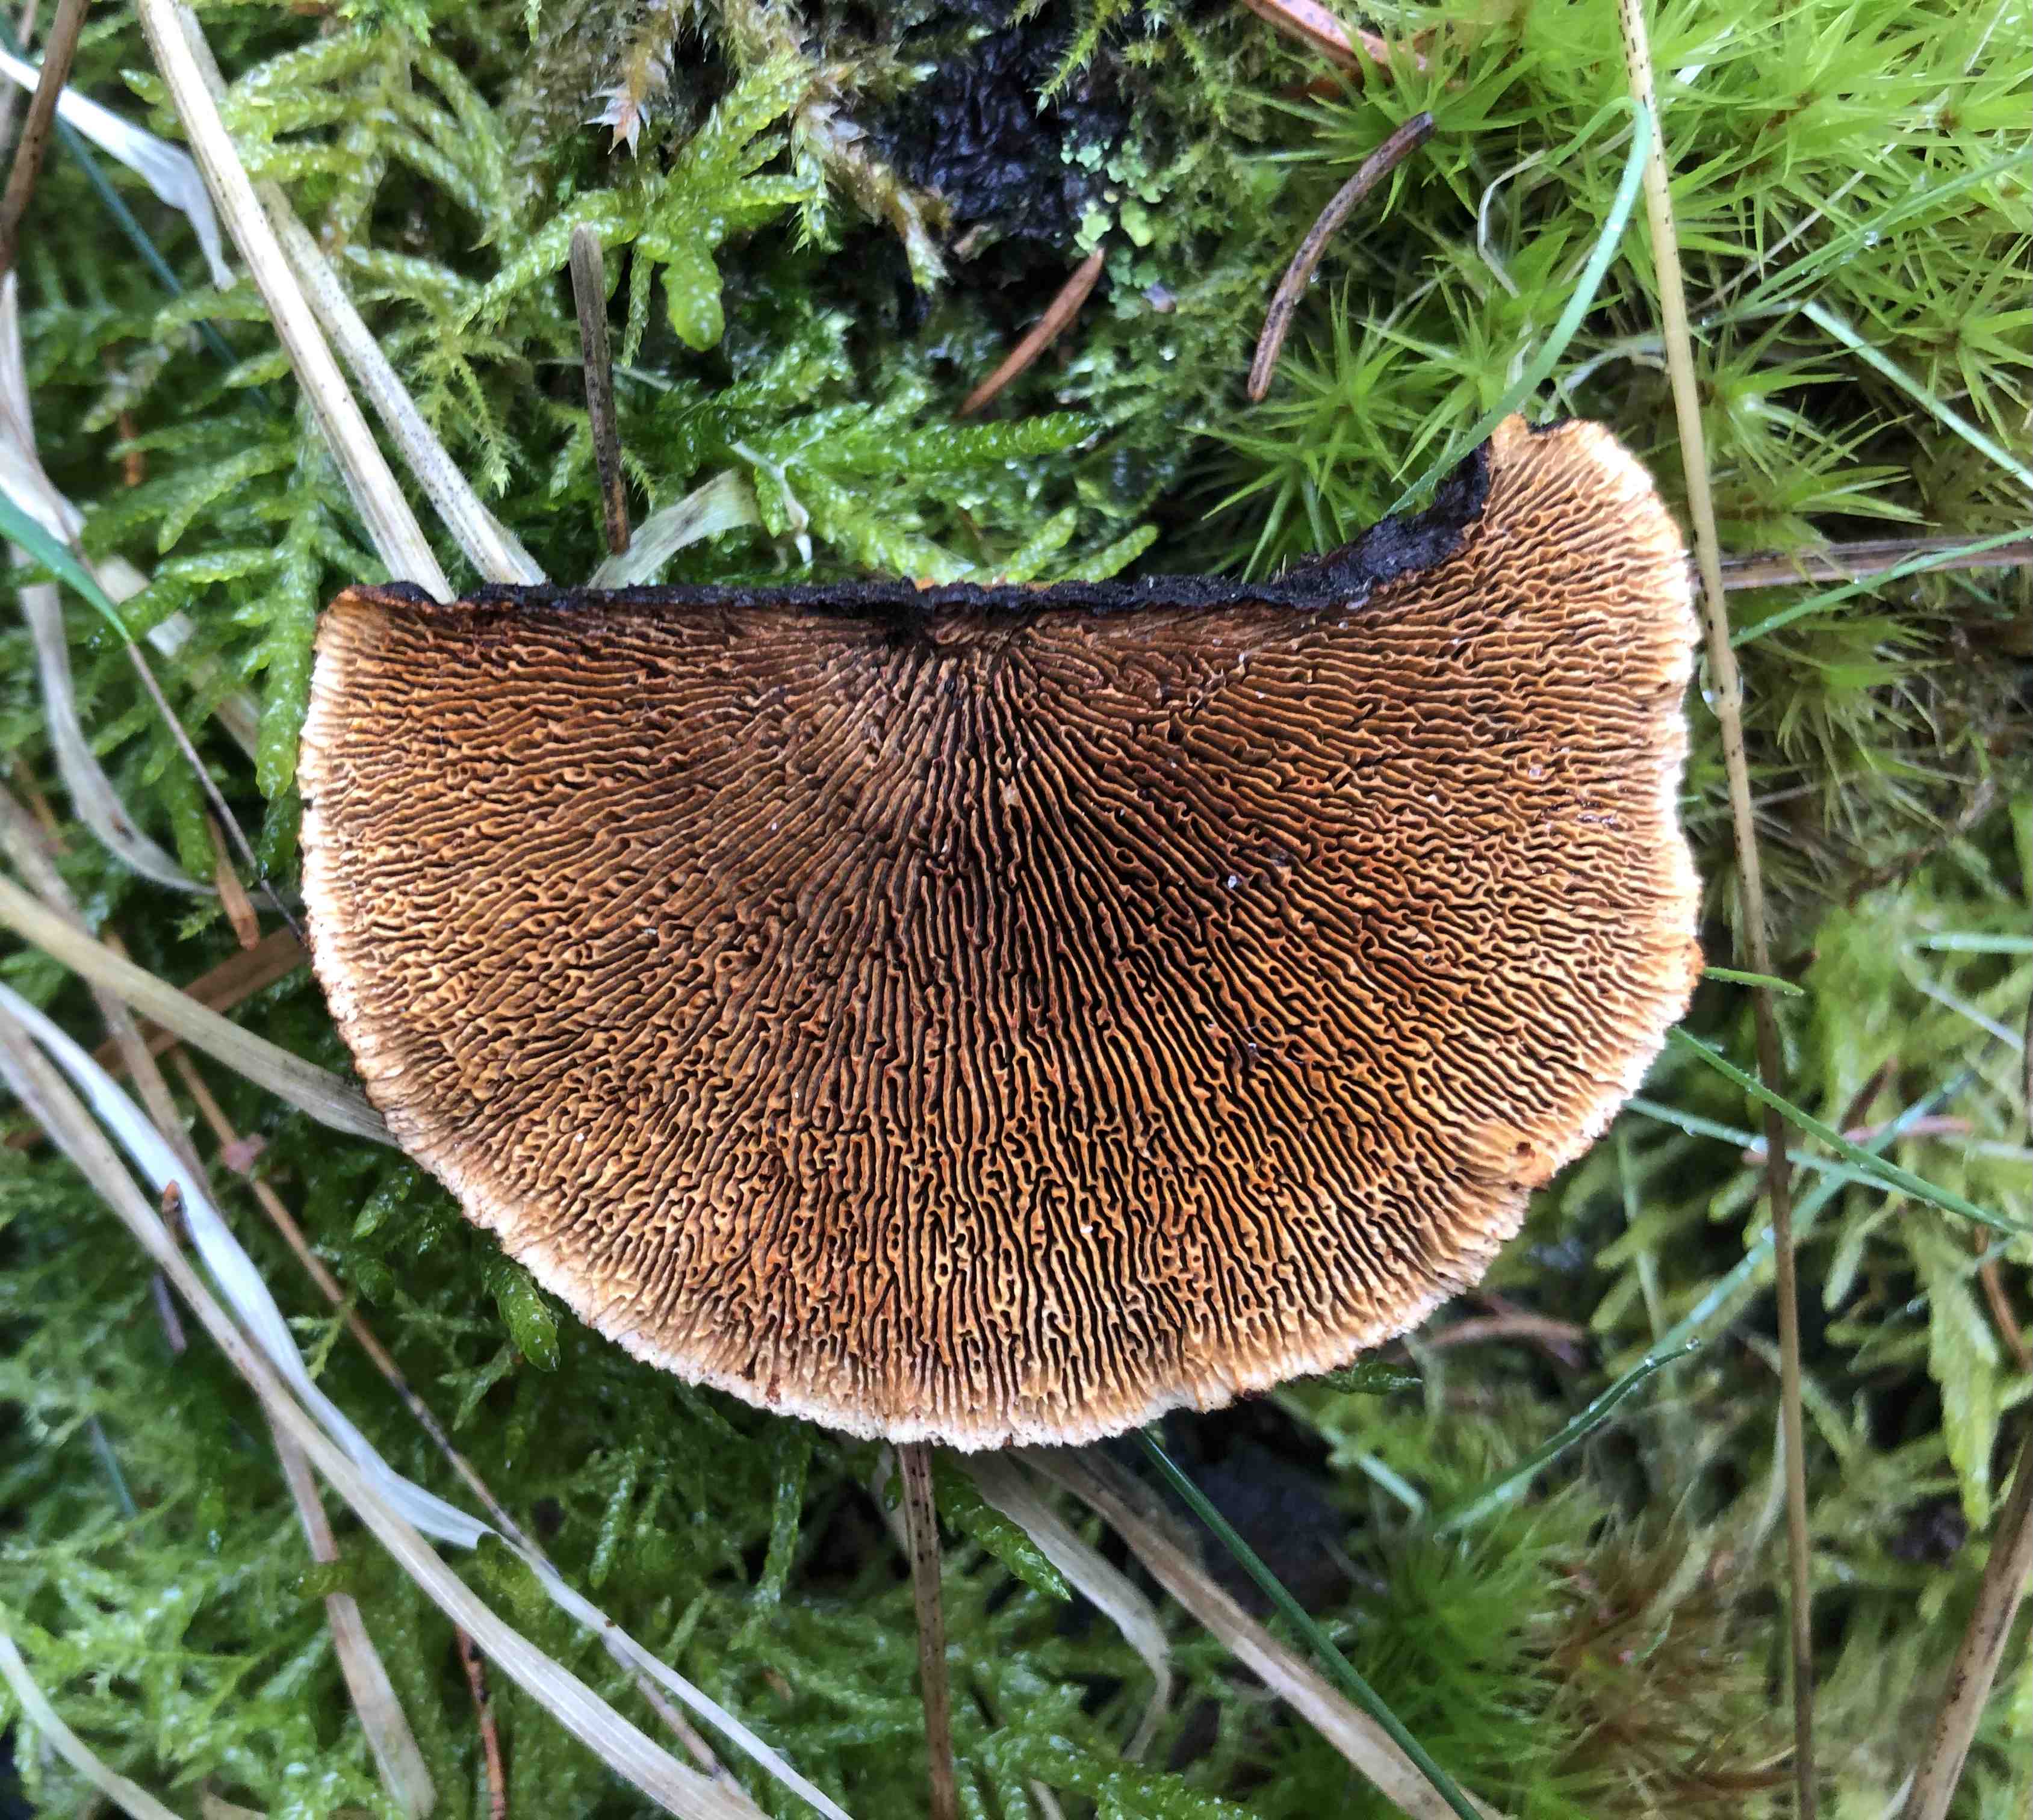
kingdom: Fungi
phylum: Basidiomycota
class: Agaricomycetes
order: Gloeophyllales
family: Gloeophyllaceae
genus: Gloeophyllum
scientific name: Gloeophyllum sepiarium
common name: fyrre-korkhat
